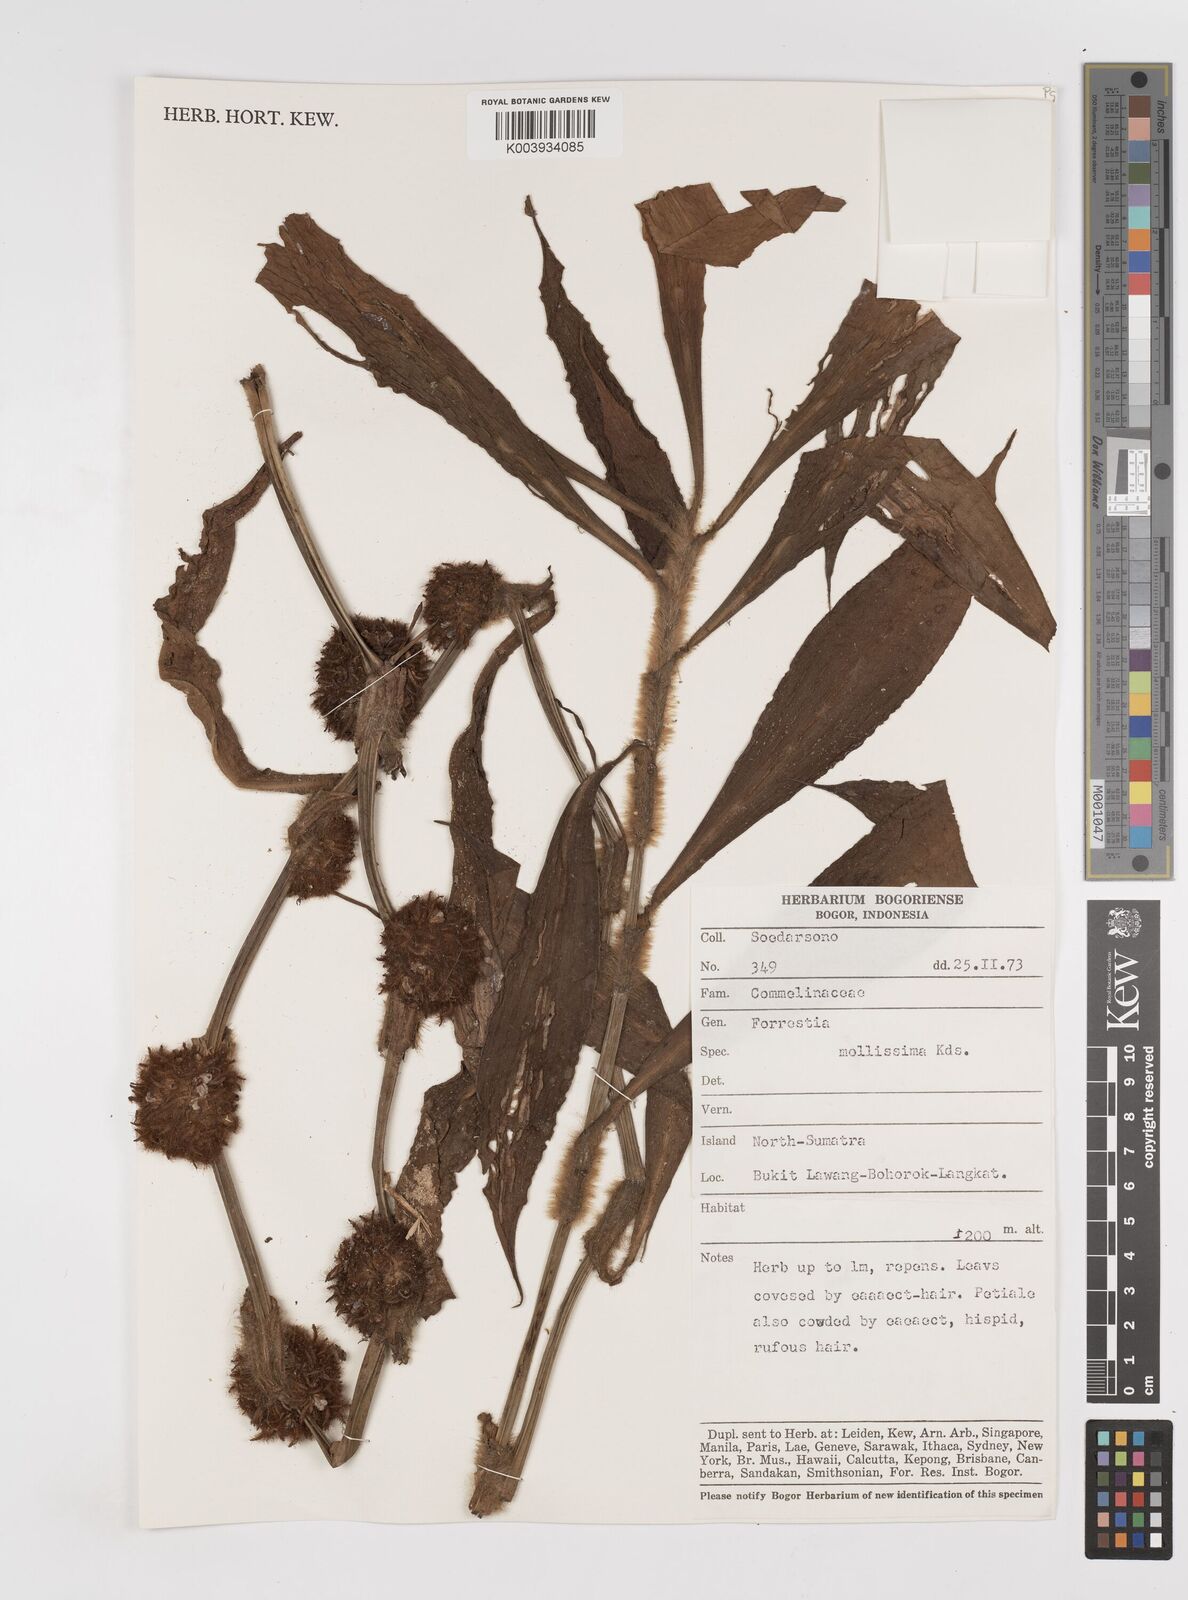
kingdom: Plantae
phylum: Tracheophyta
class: Liliopsida
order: Commelinales
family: Commelinaceae
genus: Amischotolype
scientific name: Amischotolype
